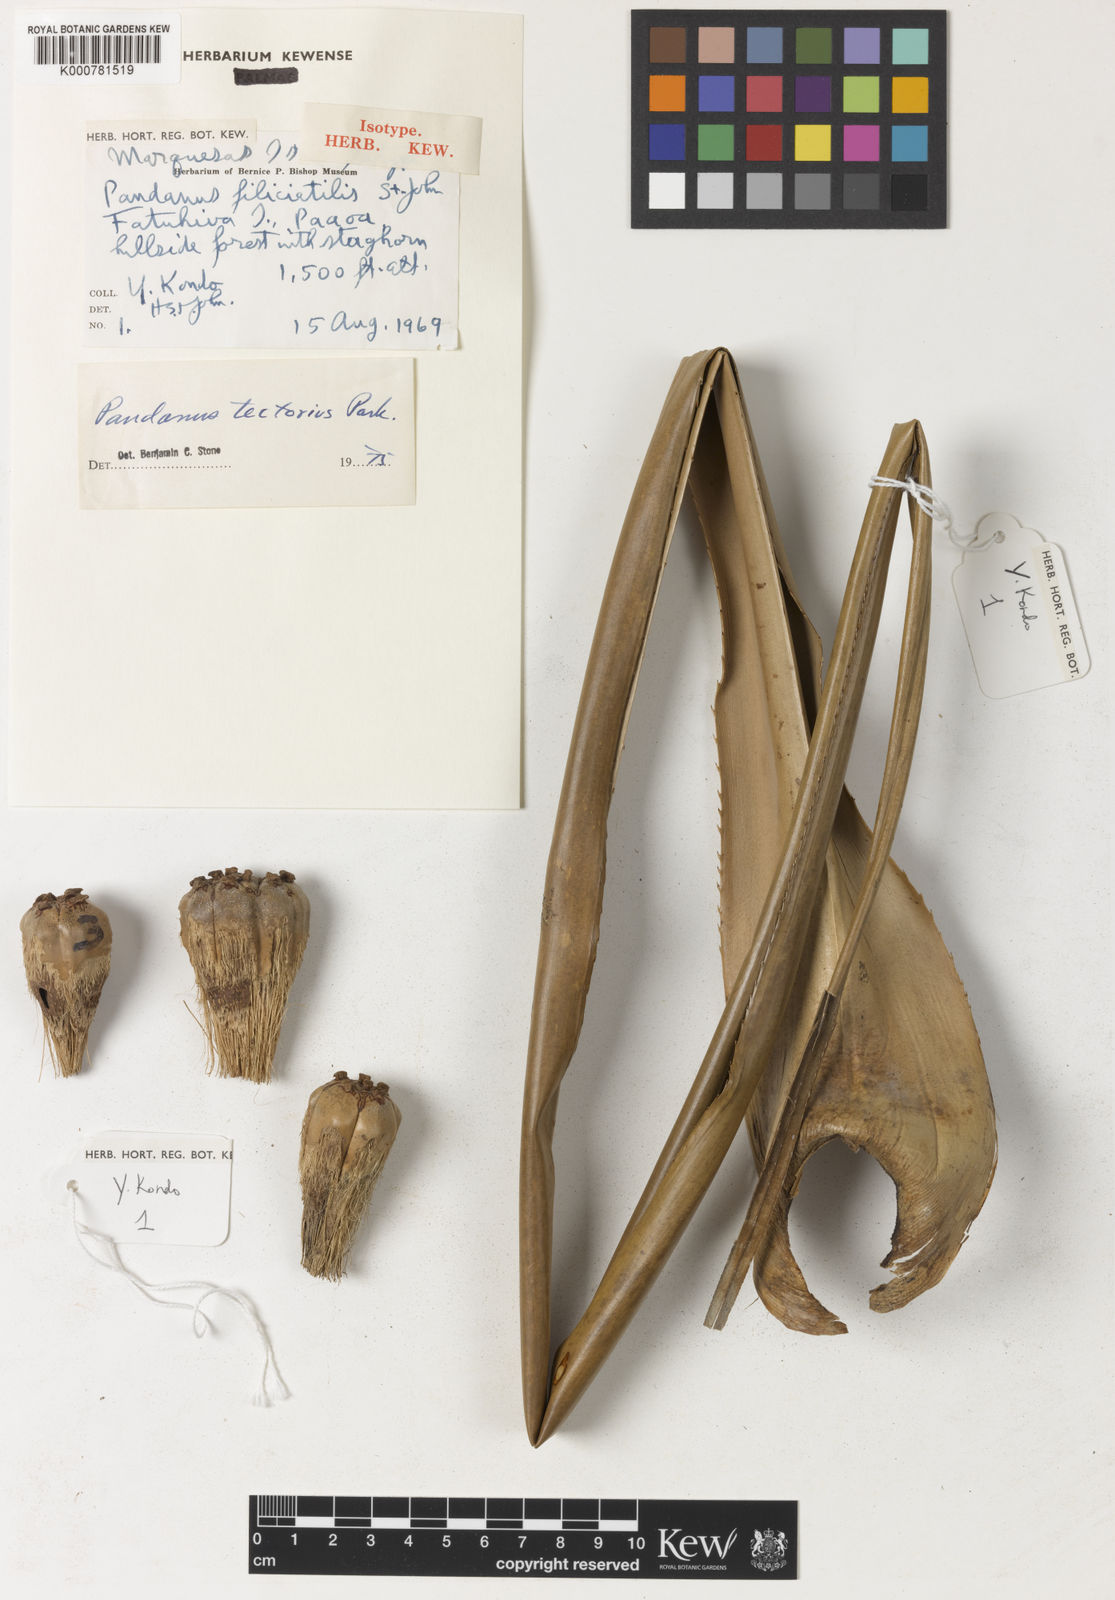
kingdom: Plantae
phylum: Tracheophyta
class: Liliopsida
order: Pandanales
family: Pandanaceae
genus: Pandanus
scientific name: Pandanus
